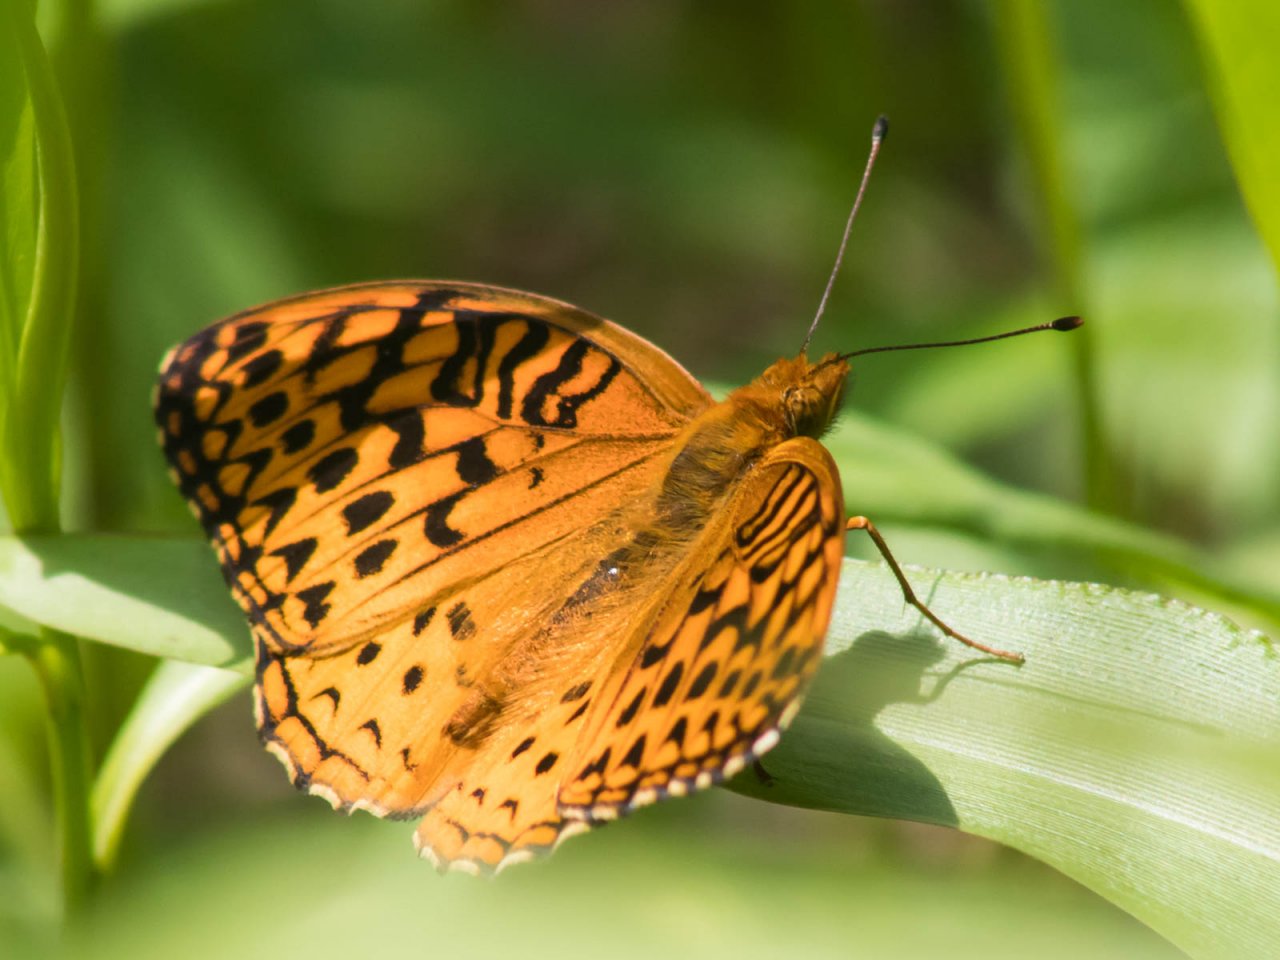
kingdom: Animalia
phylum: Arthropoda
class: Insecta
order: Lepidoptera
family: Nymphalidae
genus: Speyeria
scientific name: Speyeria aphrodite
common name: Aphrodite Fritillary
